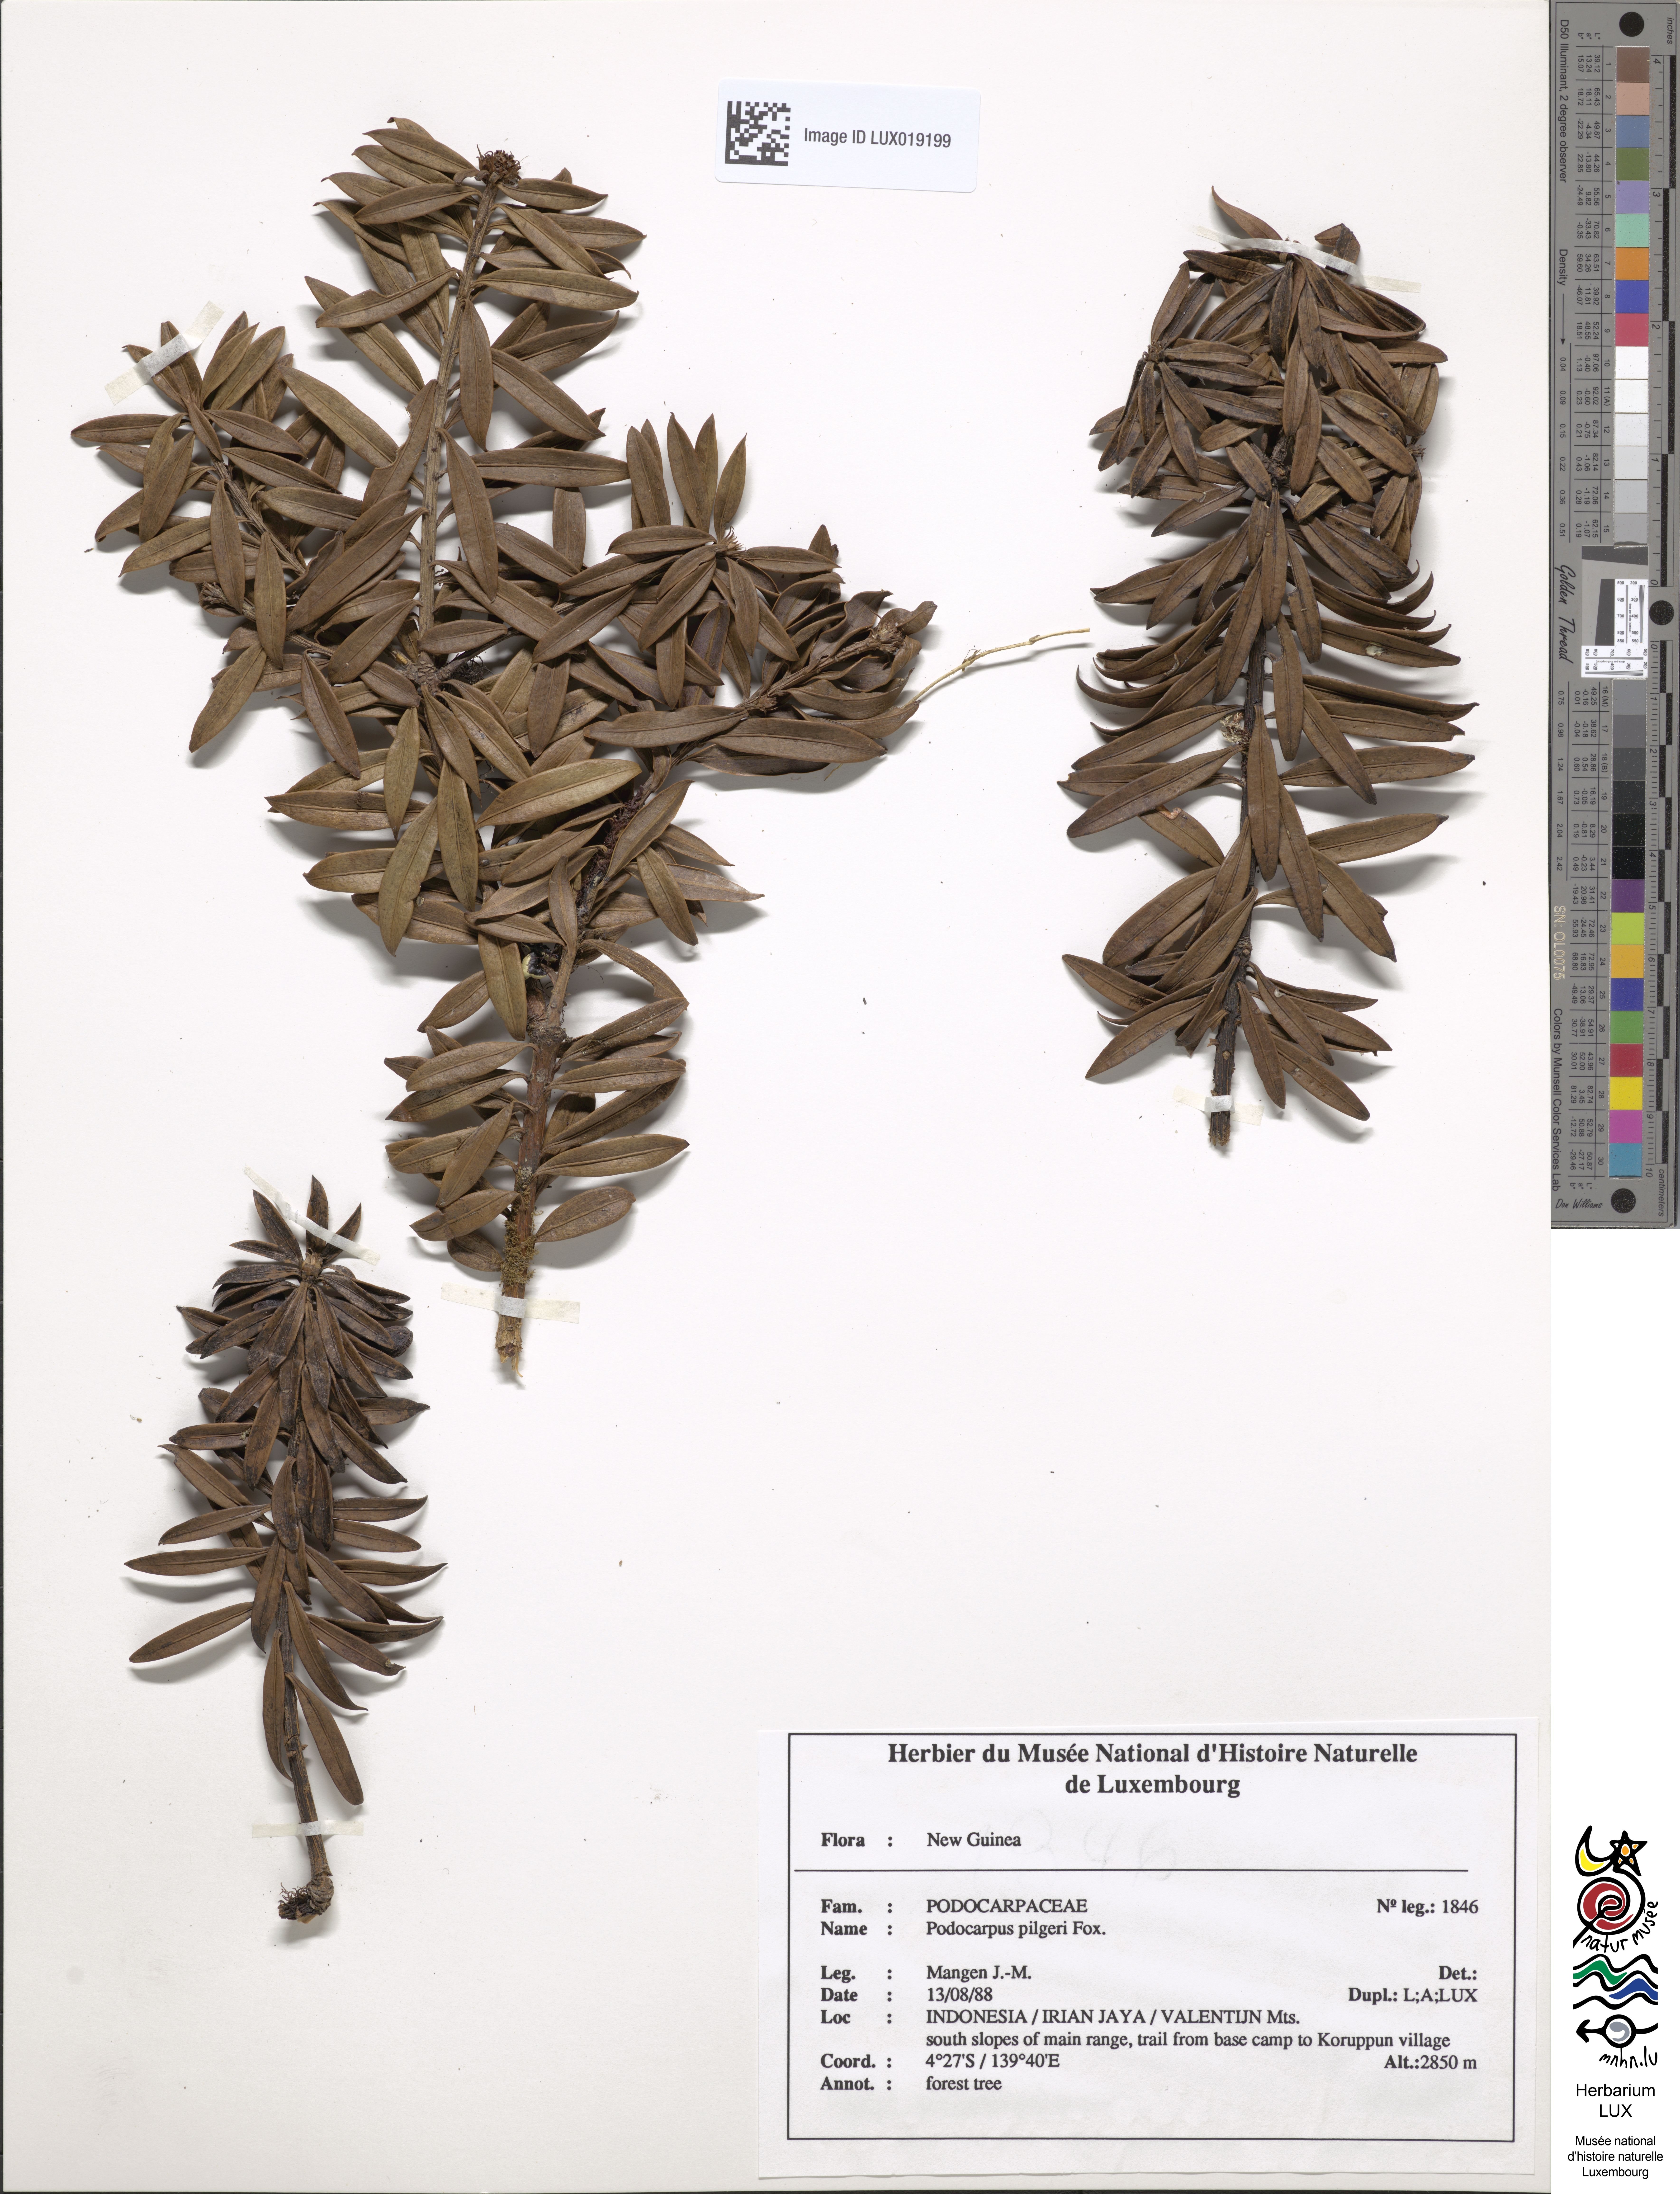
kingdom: Plantae
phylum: Tracheophyta
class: Pinopsida
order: Pinales
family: Podocarpaceae
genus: Podocarpus
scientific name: Podocarpus pilgeri
